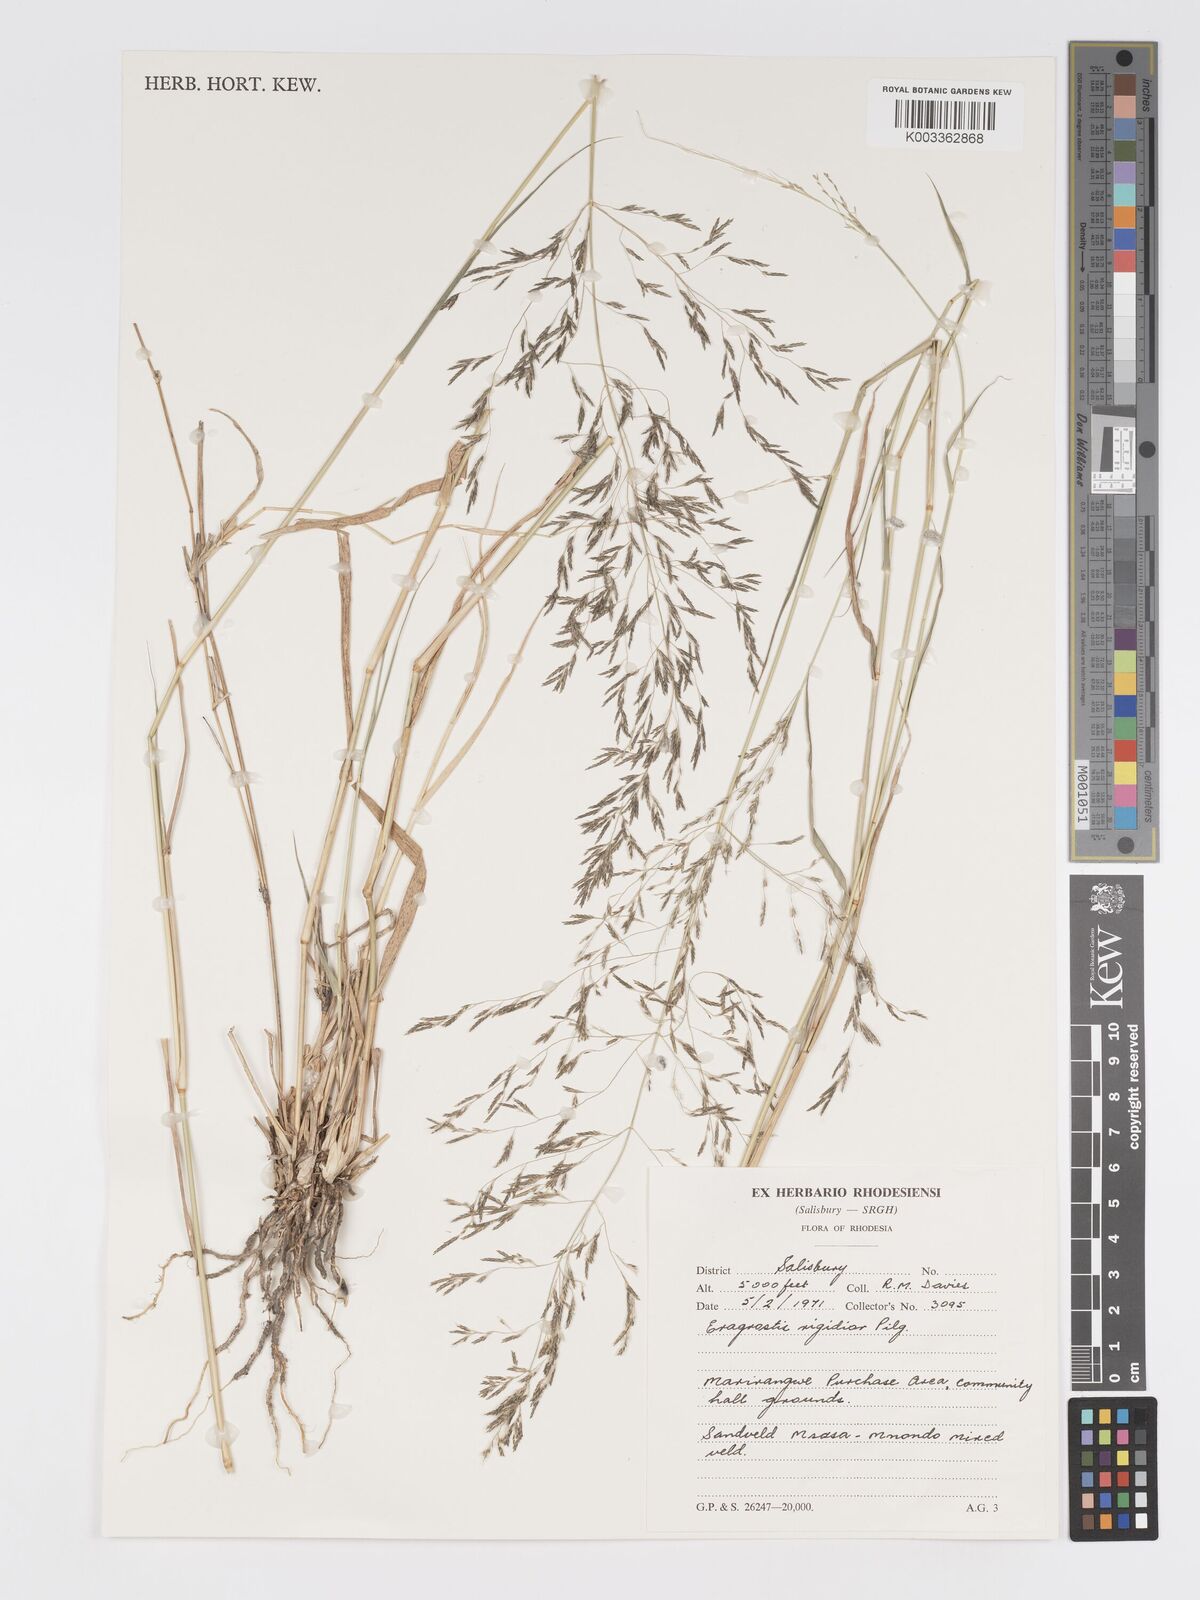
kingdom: Plantae
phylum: Tracheophyta
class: Liliopsida
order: Poales
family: Poaceae
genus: Eragrostis
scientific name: Eragrostis cylindriflora
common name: Cylinderflower lovegrass
